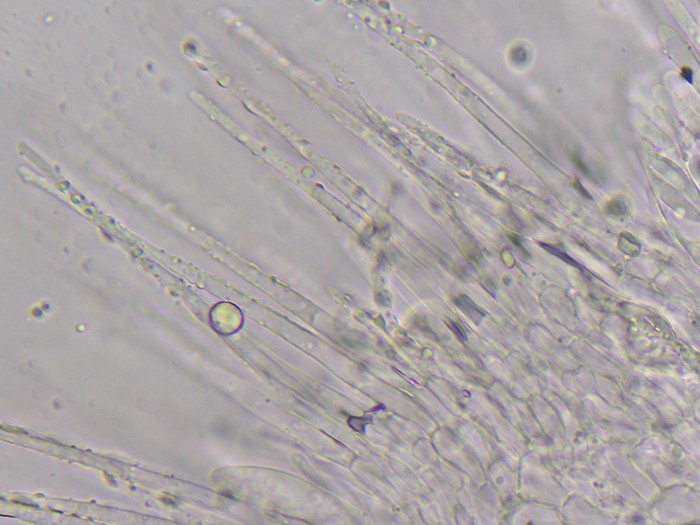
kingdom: Fungi
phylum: Ascomycota
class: Leotiomycetes
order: Helotiales
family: Hyaloscyphaceae
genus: Eupezizella
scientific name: Eupezizella britannica
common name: lærke-klarskive
